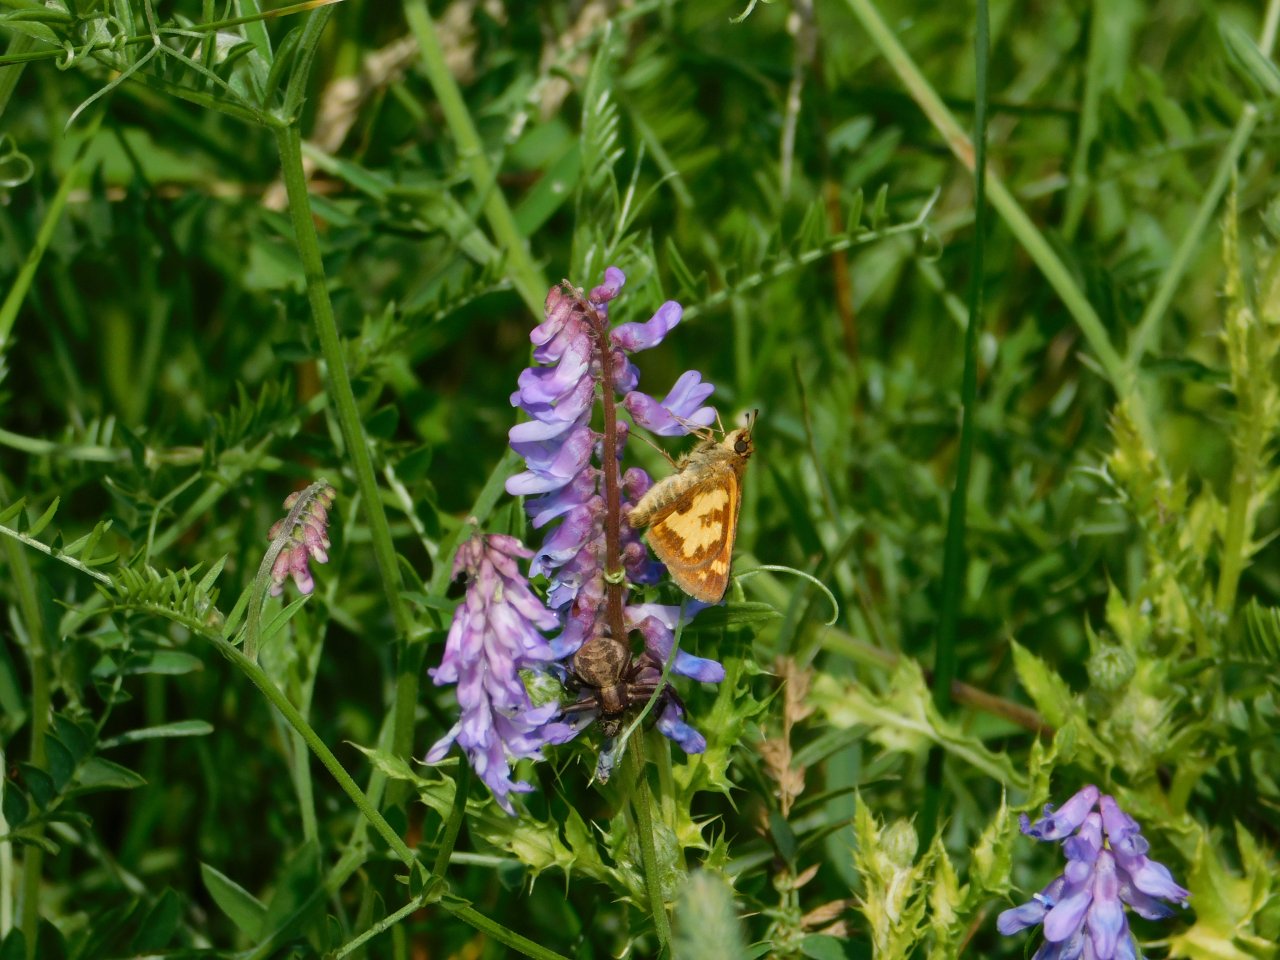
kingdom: Animalia
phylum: Arthropoda
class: Insecta
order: Lepidoptera
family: Hesperiidae
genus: Polites
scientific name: Polites coras
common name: Peck's Skipper
